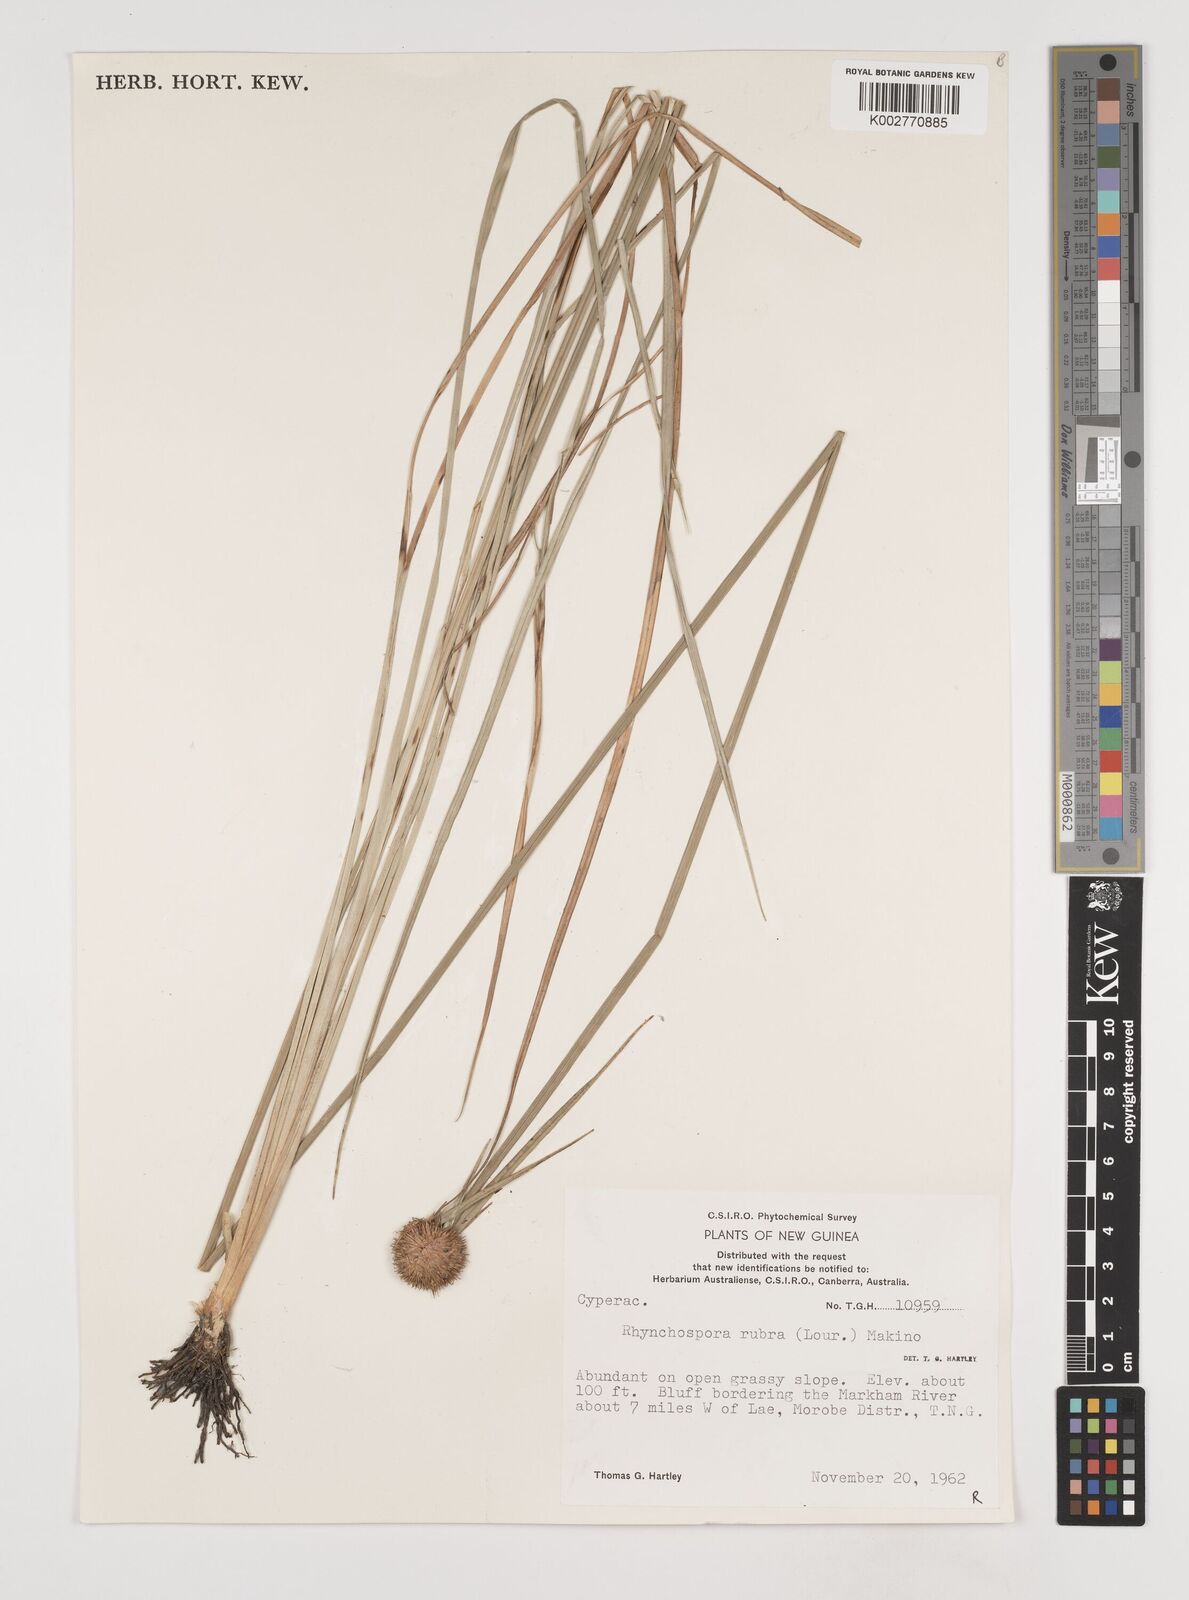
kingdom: Plantae
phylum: Tracheophyta
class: Liliopsida
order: Poales
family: Cyperaceae
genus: Rhynchospora
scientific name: Rhynchospora rubra
